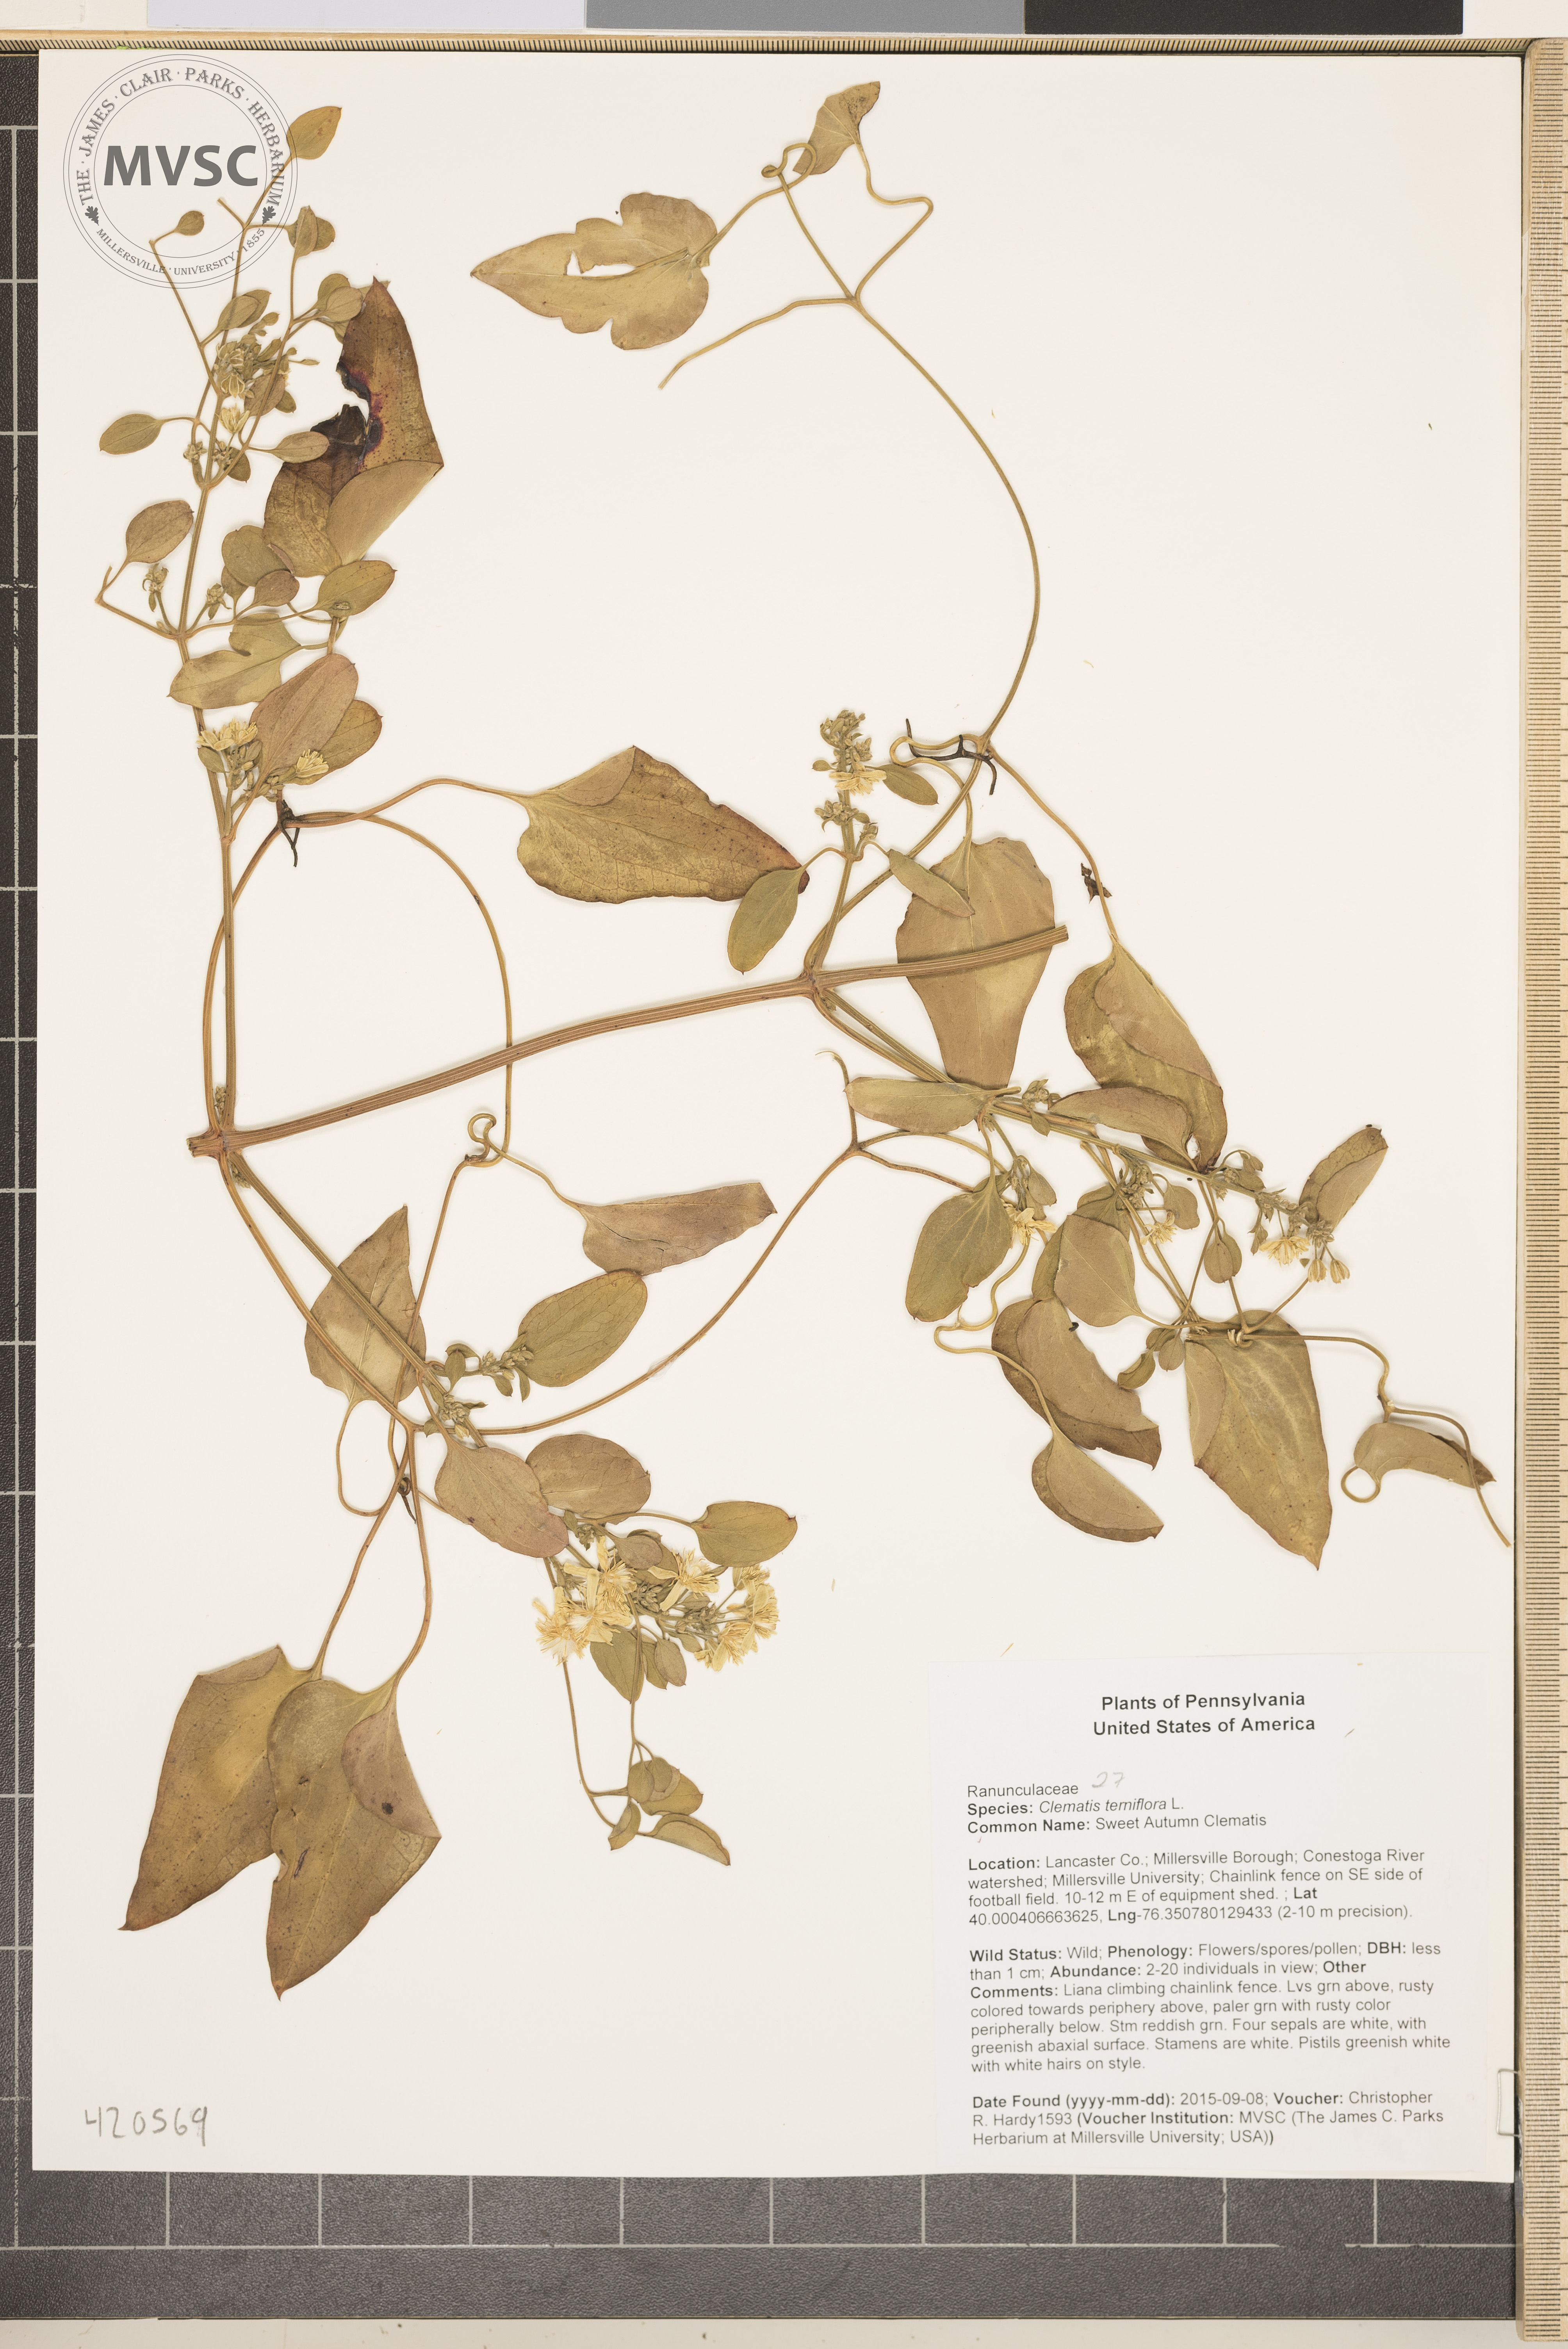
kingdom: Plantae
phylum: Tracheophyta
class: Magnoliopsida
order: Ranunculales
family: Ranunculaceae
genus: Clematis
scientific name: Clematis terniflora
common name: Sweet Autumn Clematis
